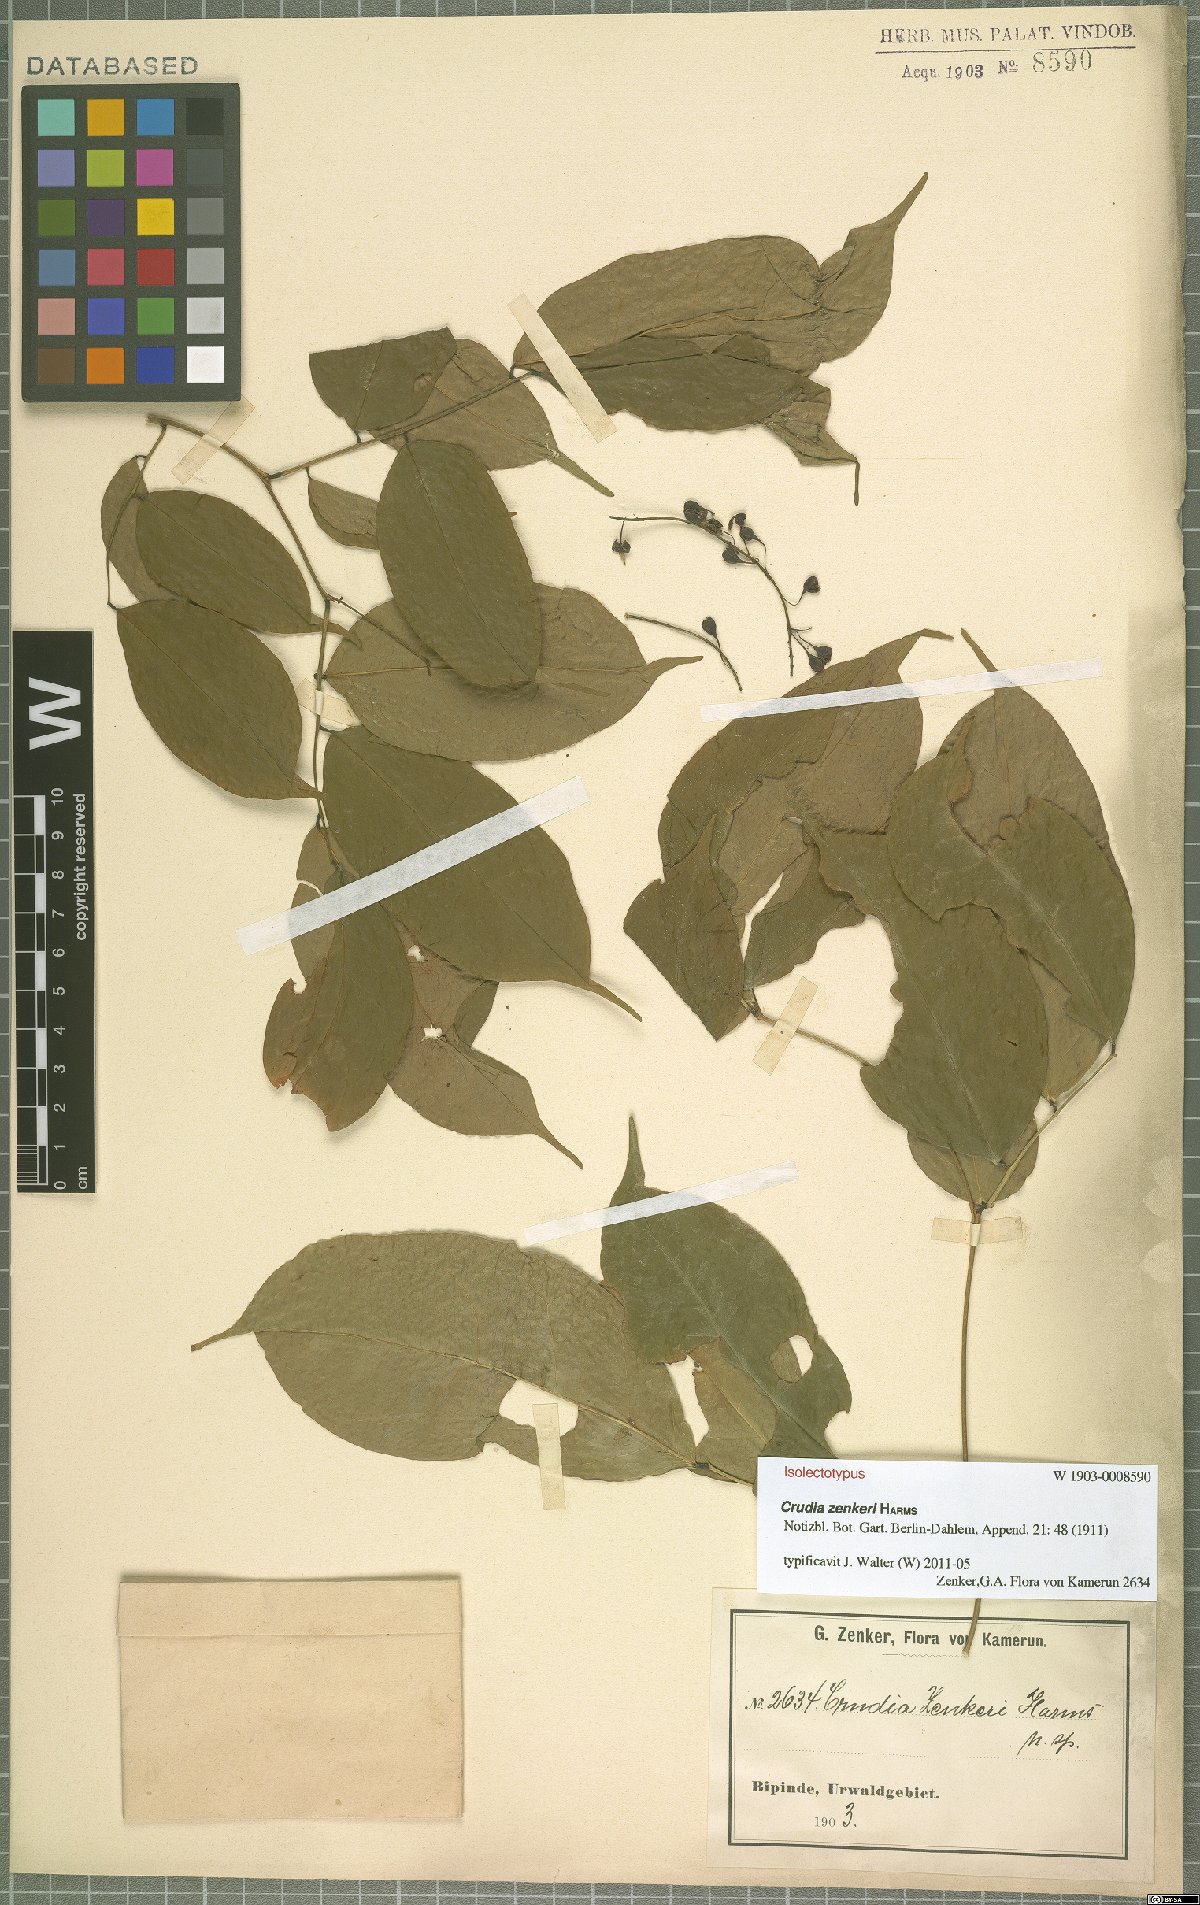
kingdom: Plantae
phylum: Tracheophyta
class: Magnoliopsida
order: Fabales
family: Fabaceae
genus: Crudia
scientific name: Crudia zenkeri
